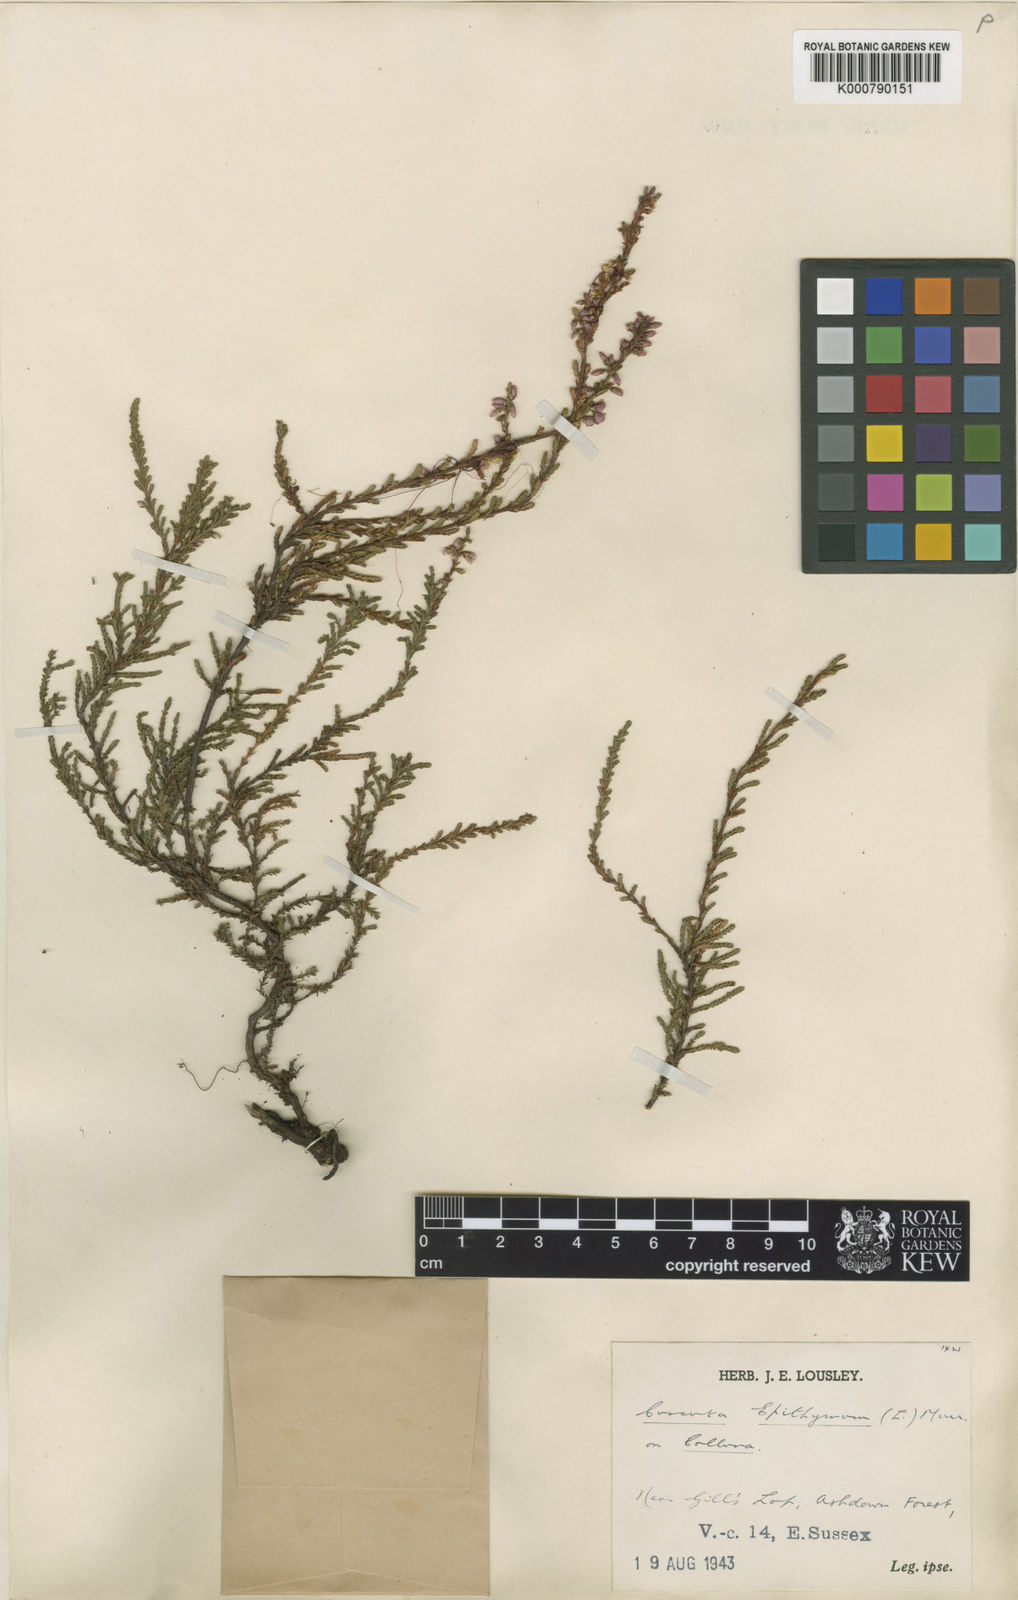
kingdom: Plantae
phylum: Tracheophyta
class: Magnoliopsida
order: Solanales
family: Convolvulaceae
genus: Cuscuta
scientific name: Cuscuta epithymum
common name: Clover dodder
